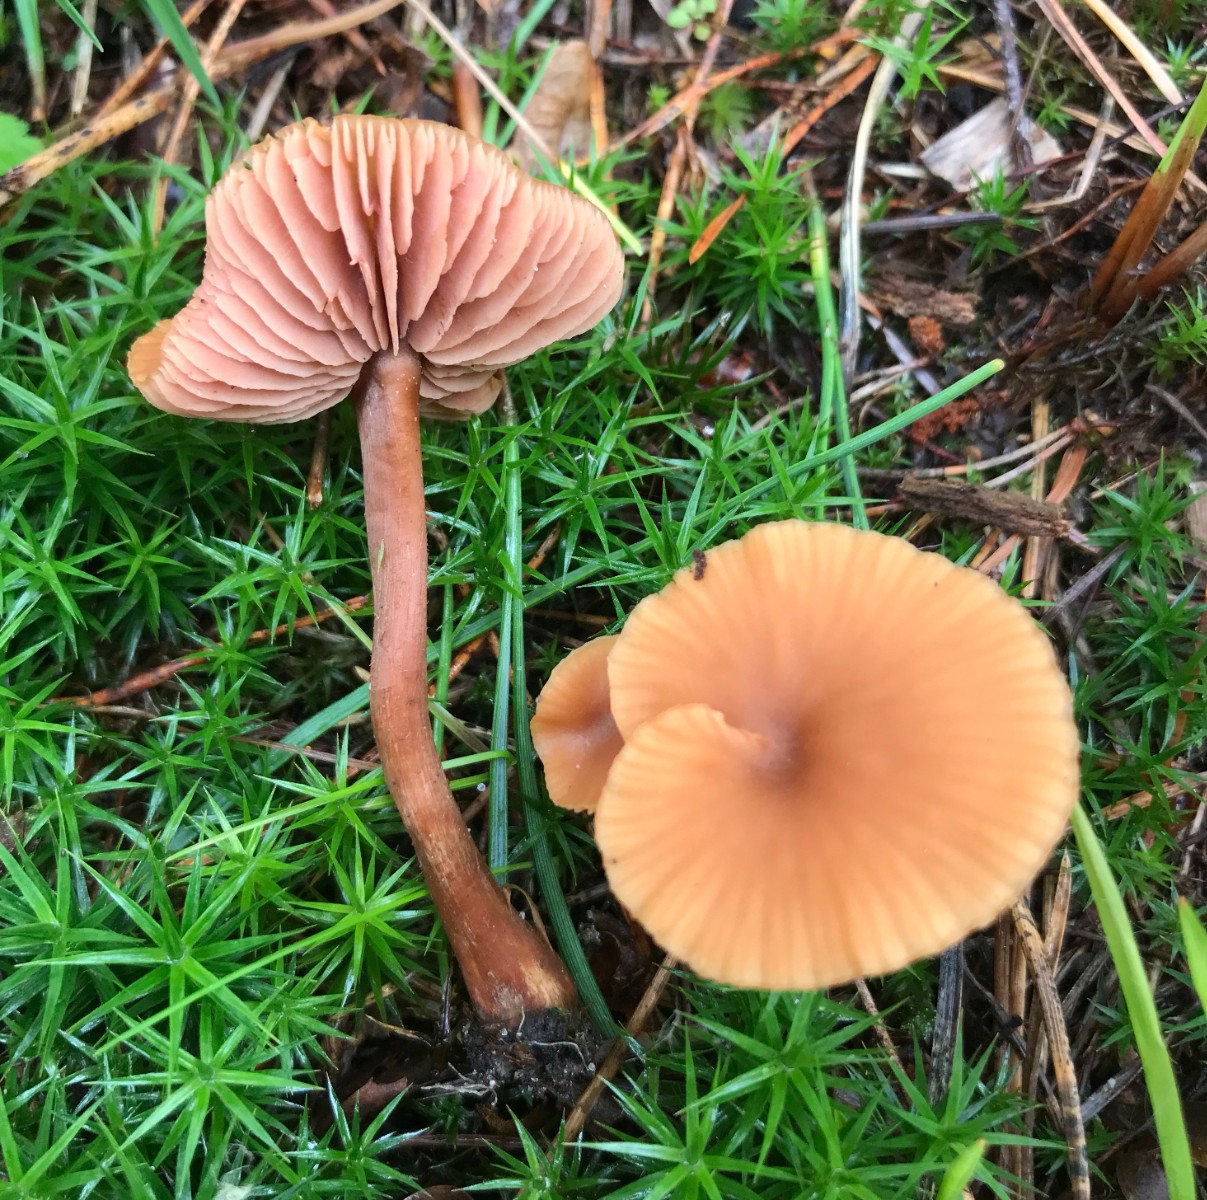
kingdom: Fungi
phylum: Basidiomycota
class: Agaricomycetes
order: Agaricales
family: Hydnangiaceae
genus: Laccaria
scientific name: Laccaria laccata
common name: rød ametysthat
